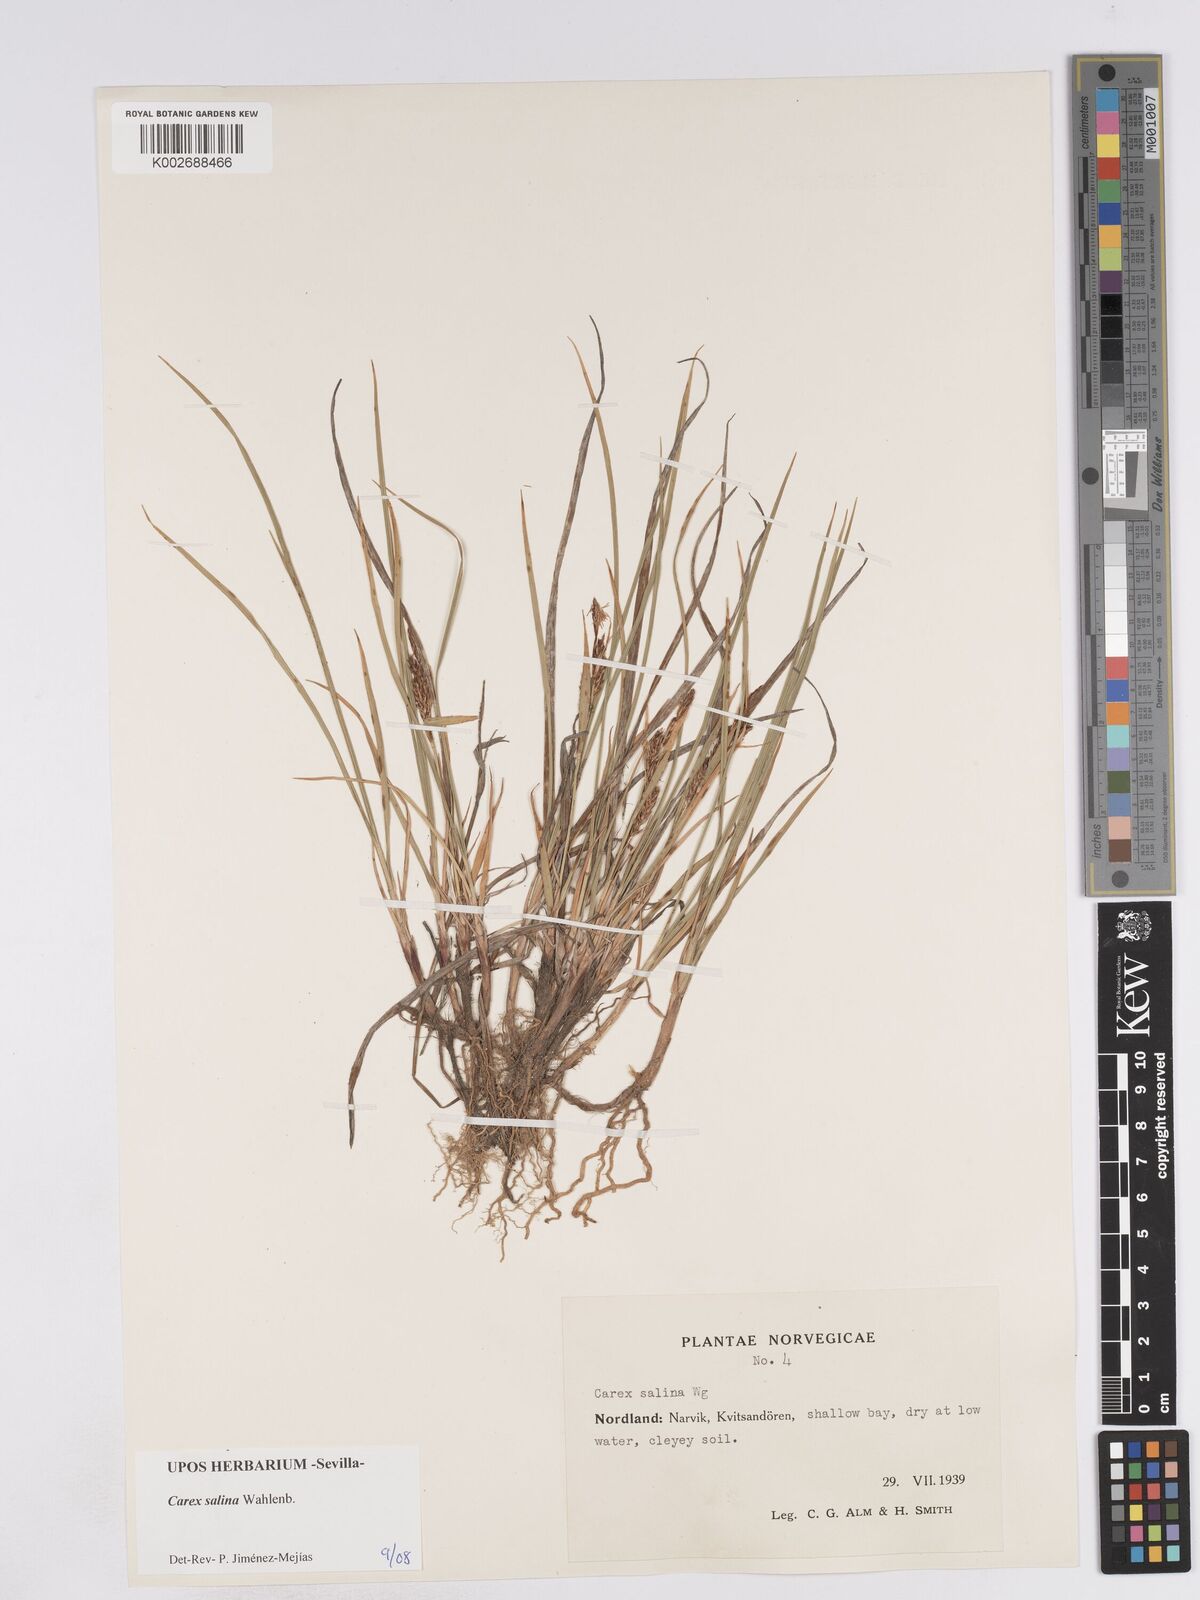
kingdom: Plantae
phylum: Tracheophyta
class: Liliopsida
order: Poales
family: Cyperaceae
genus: Carex
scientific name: Carex salina
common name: Saltmarsh sedge
